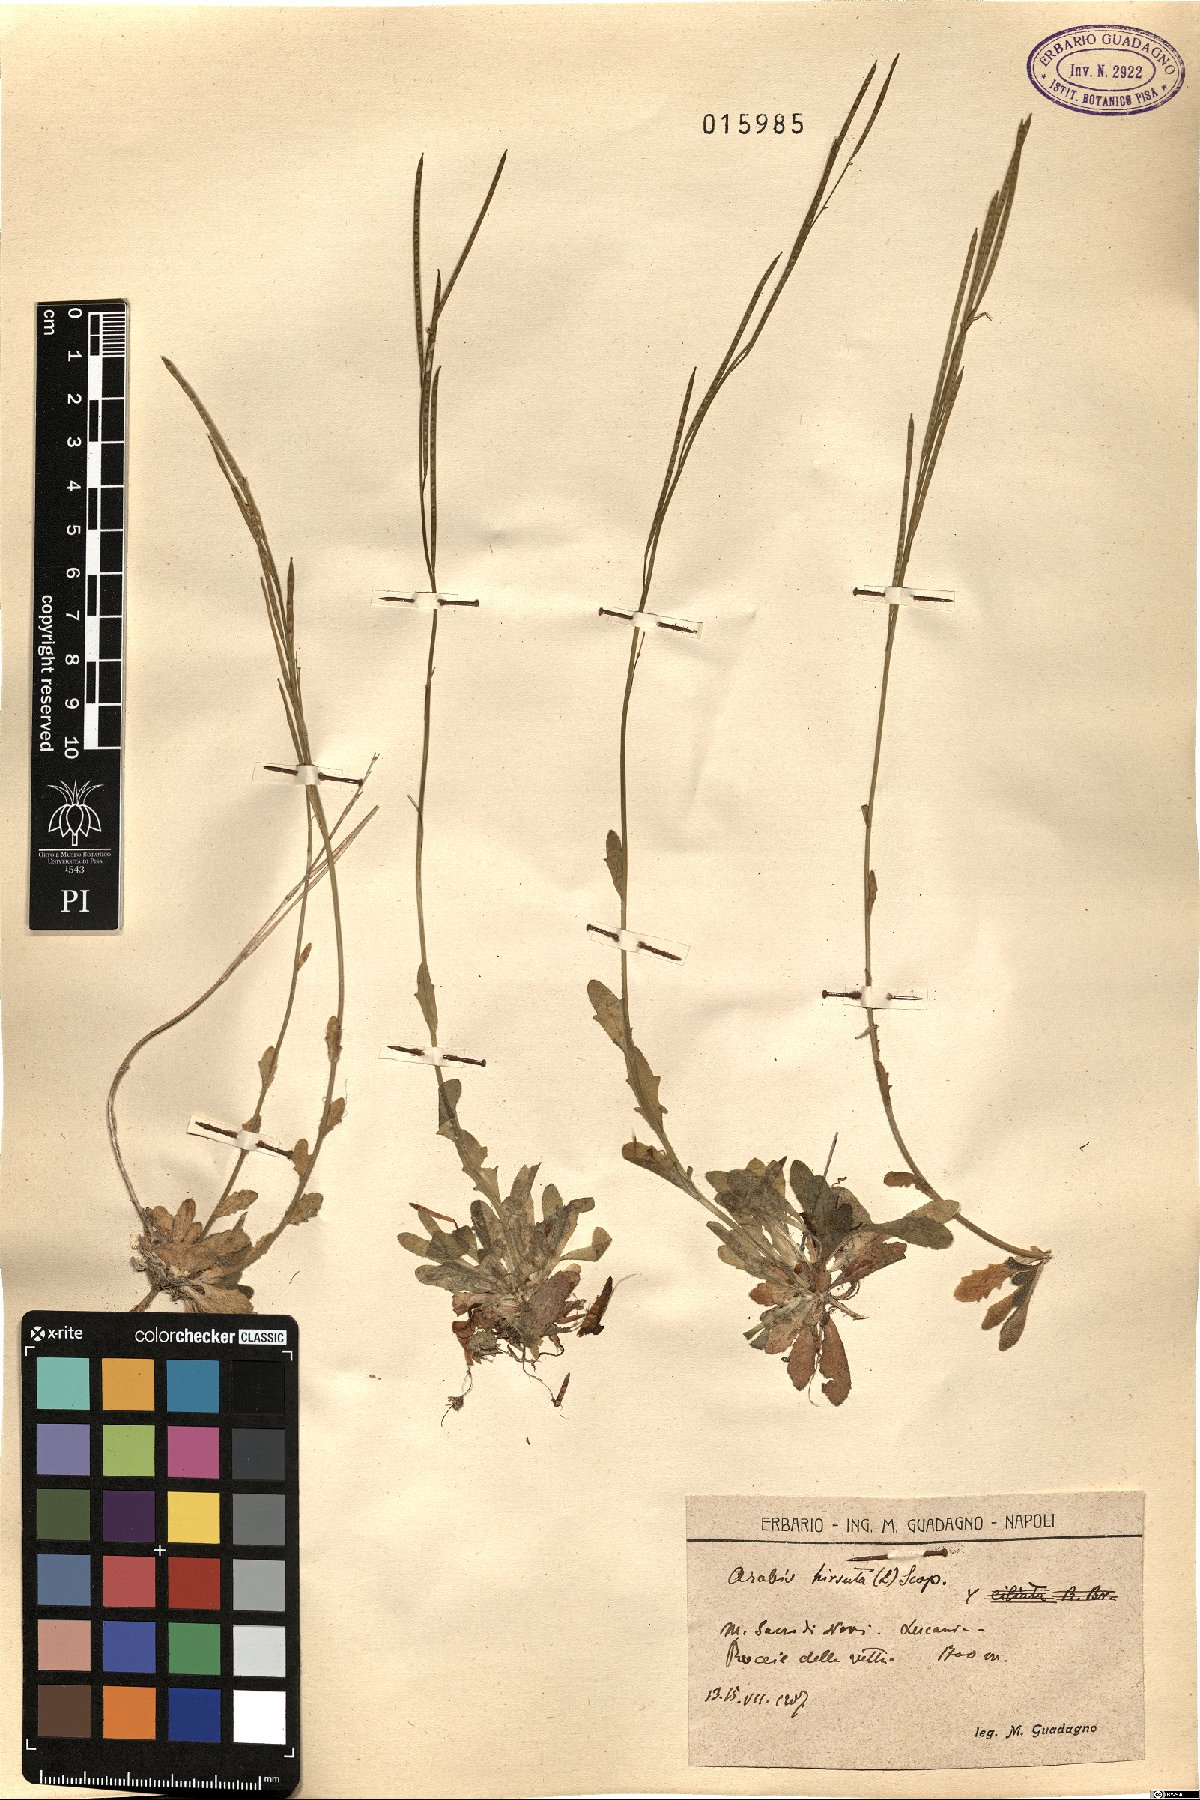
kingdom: Plantae
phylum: Tracheophyta
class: Magnoliopsida
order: Brassicales
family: Brassicaceae
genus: Arabis
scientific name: Arabis hirsuta
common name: Hairy rock-cress
